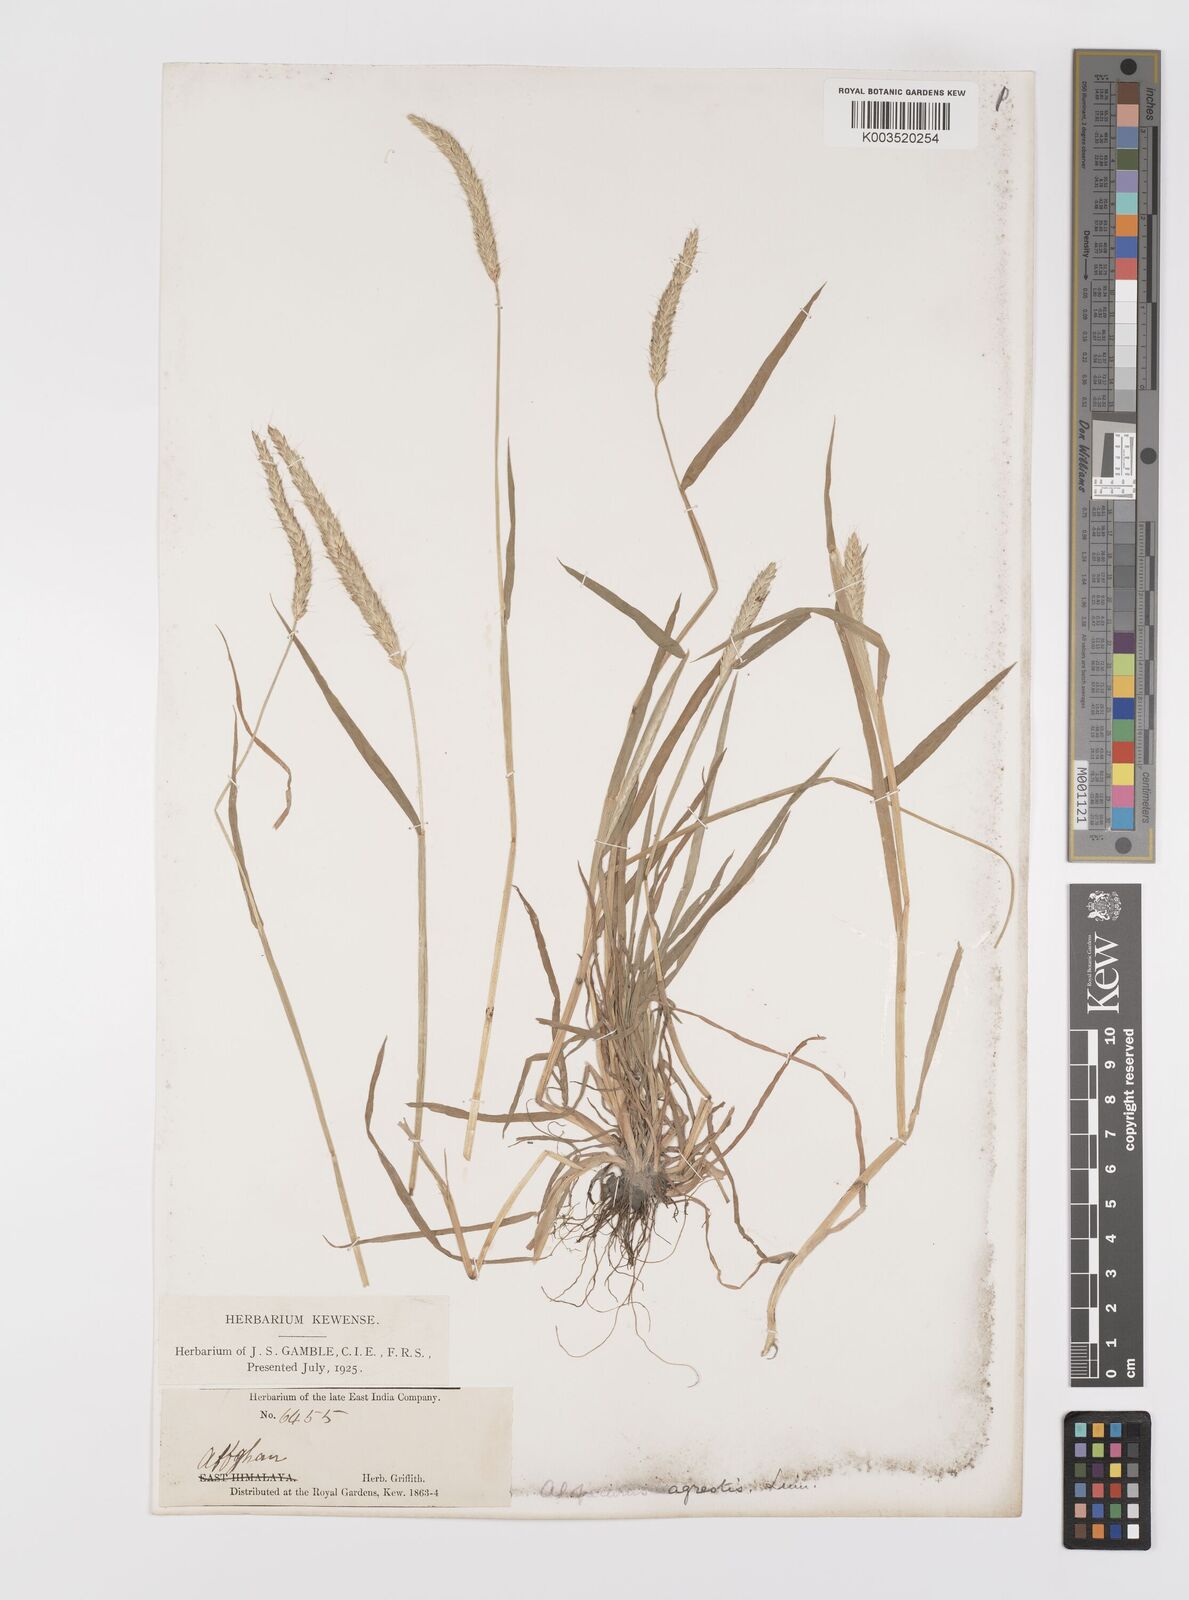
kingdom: Plantae
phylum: Tracheophyta
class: Liliopsida
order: Poales
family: Poaceae
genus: Alopecurus
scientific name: Alopecurus myosuroides
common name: Black-grass
